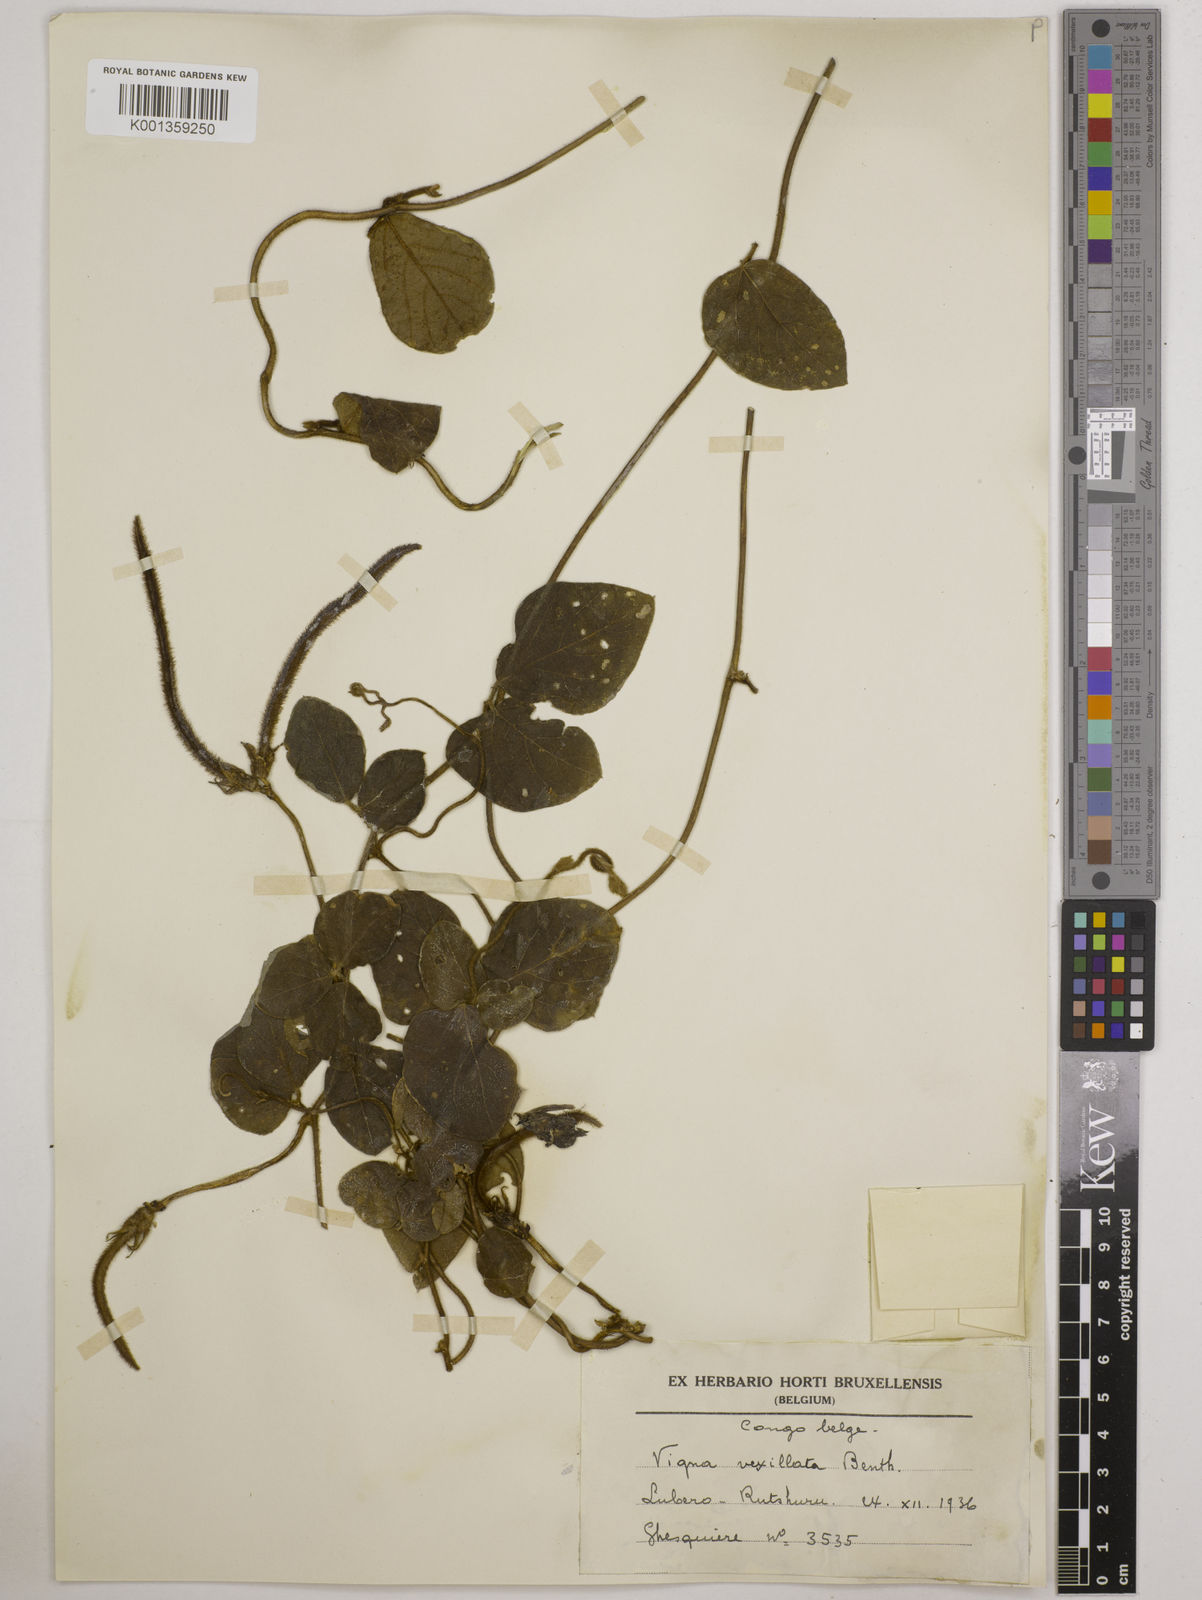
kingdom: Plantae
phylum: Tracheophyta
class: Magnoliopsida
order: Fabales
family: Fabaceae
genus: Vigna
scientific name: Vigna vexillata
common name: Zombi pea
